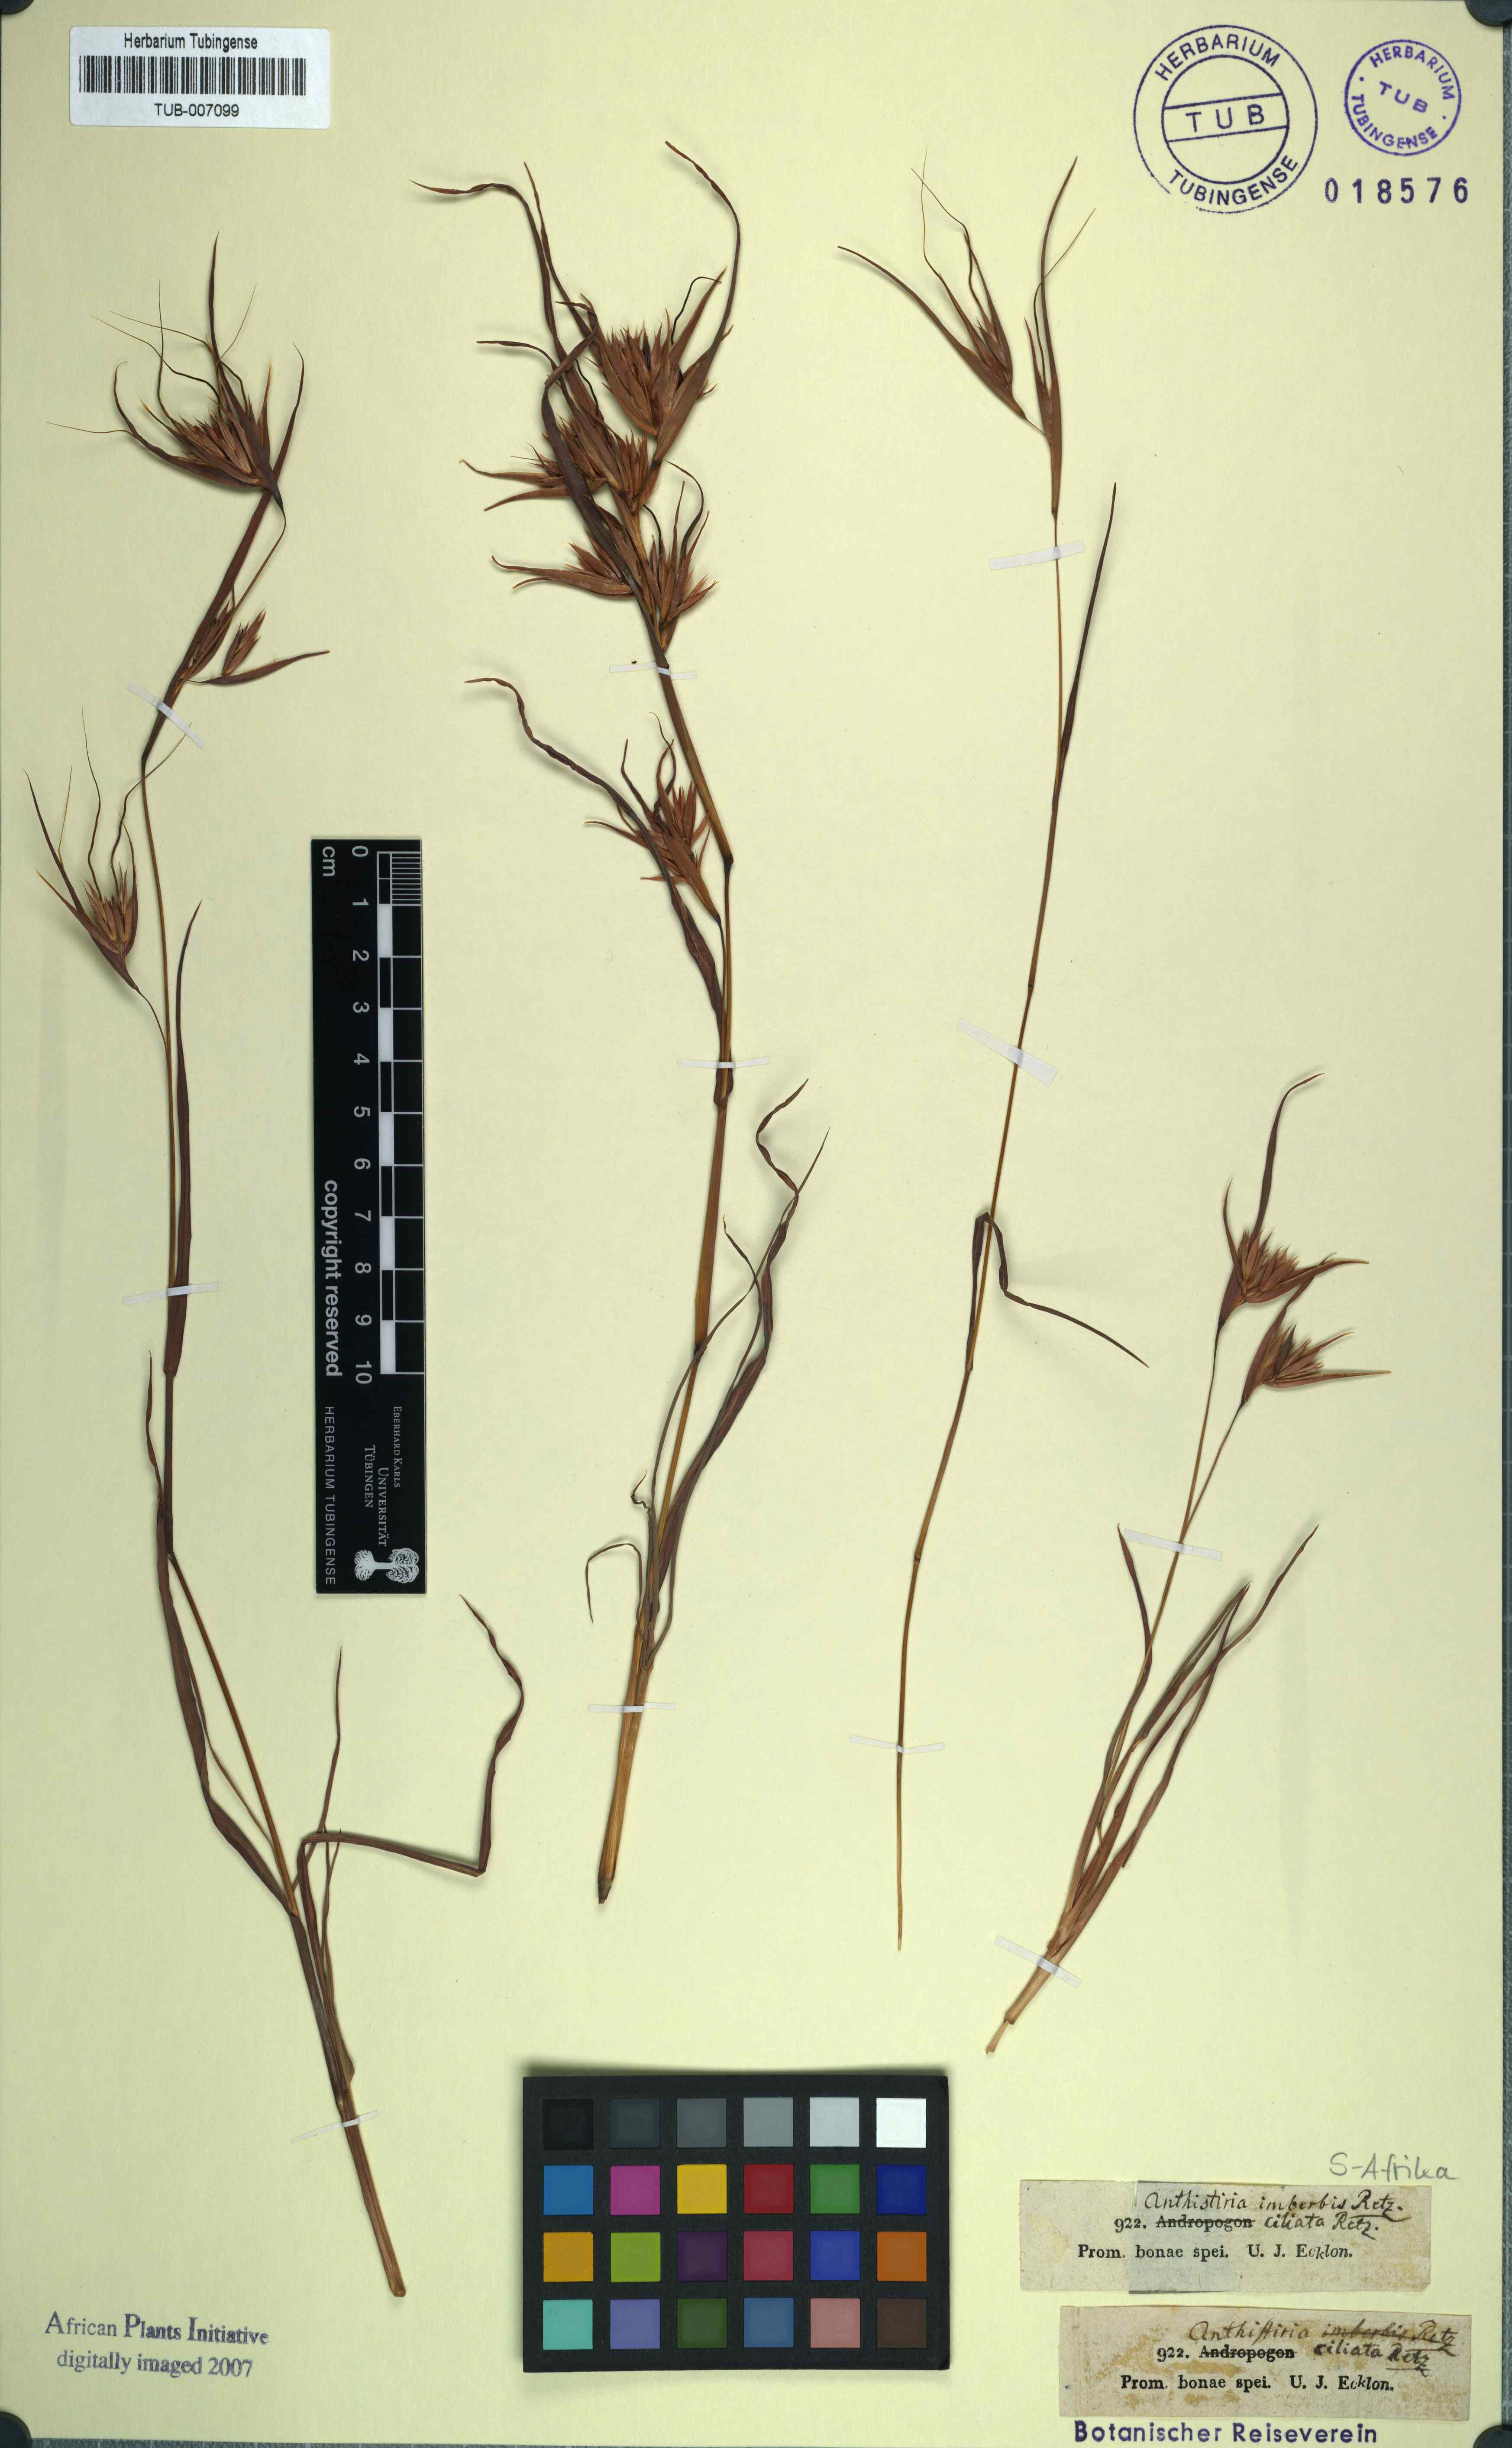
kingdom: Plantae
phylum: Tracheophyta
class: Liliopsida
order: Poales
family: Poaceae
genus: Themeda
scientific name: Themeda triandra
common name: Kangaroo grass
